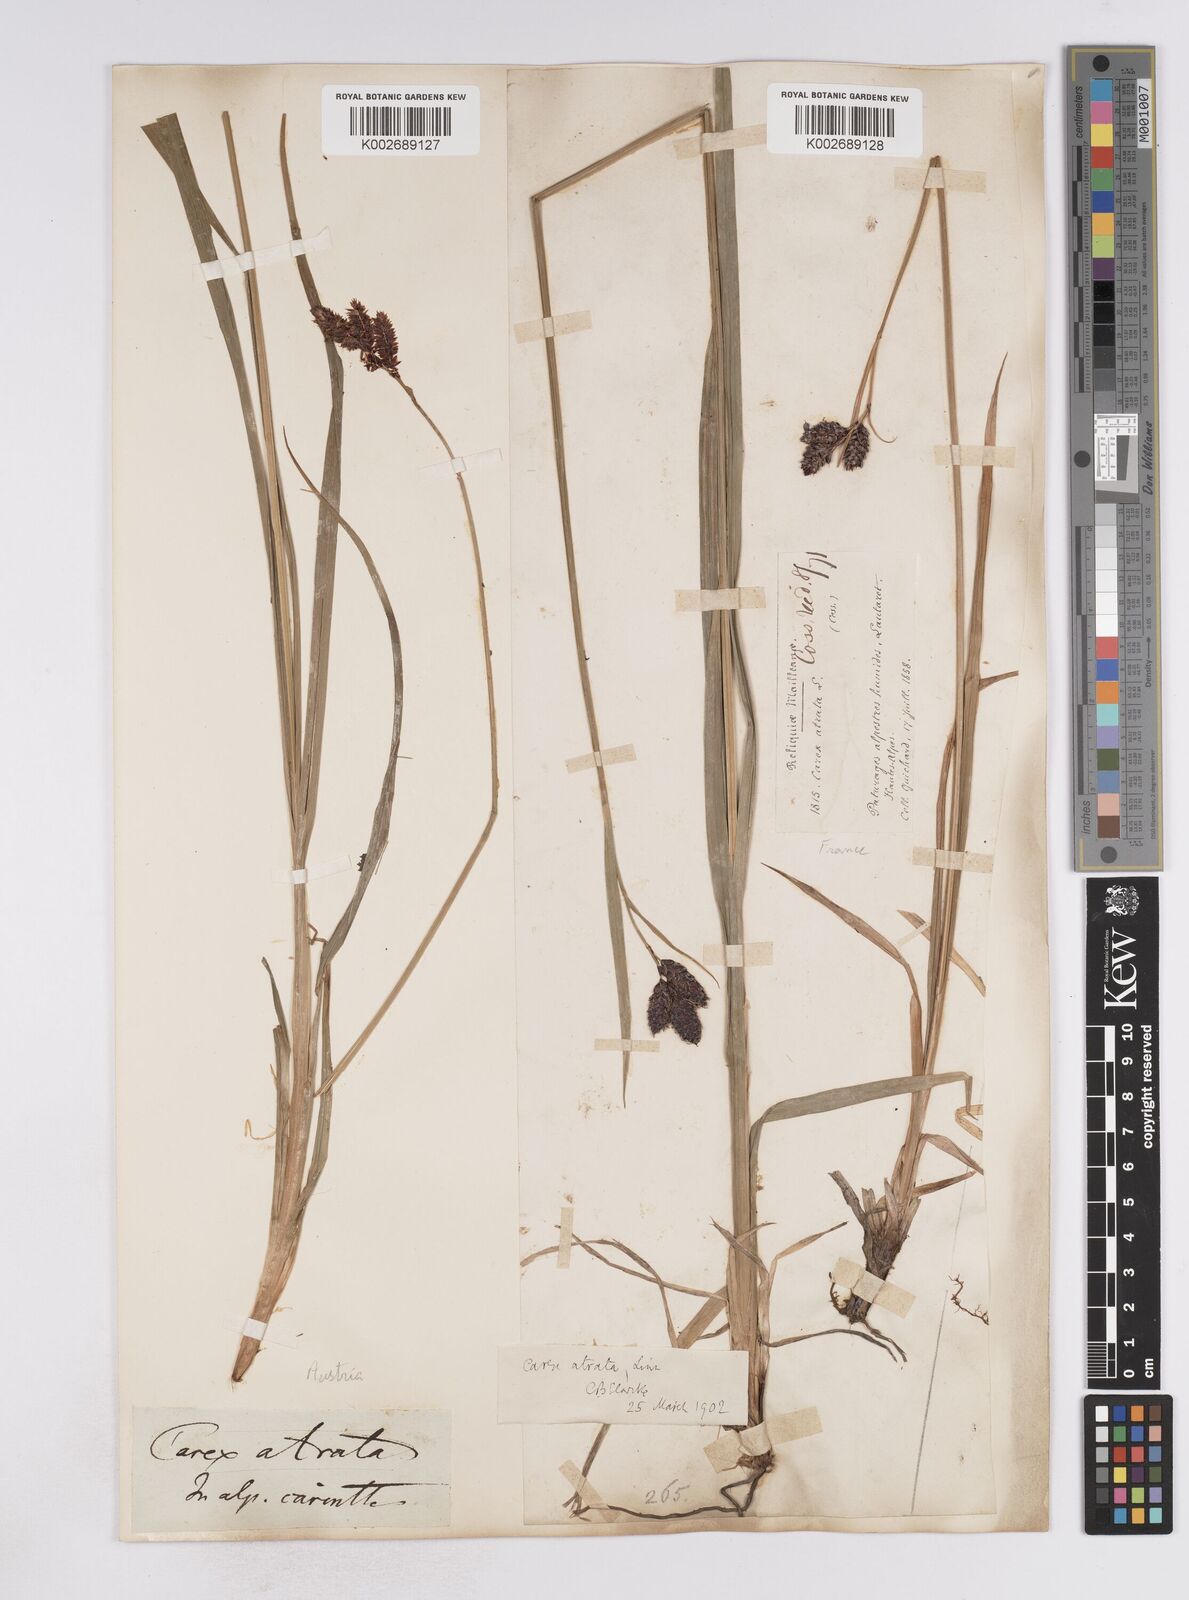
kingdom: Plantae
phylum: Tracheophyta
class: Liliopsida
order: Poales
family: Cyperaceae
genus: Carex
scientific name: Carex aterrima
